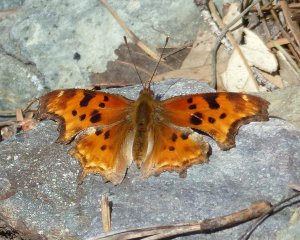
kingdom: Animalia
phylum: Arthropoda
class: Insecta
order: Lepidoptera
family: Nymphalidae
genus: Polygonia
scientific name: Polygonia satyrus
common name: Satyr Comma
